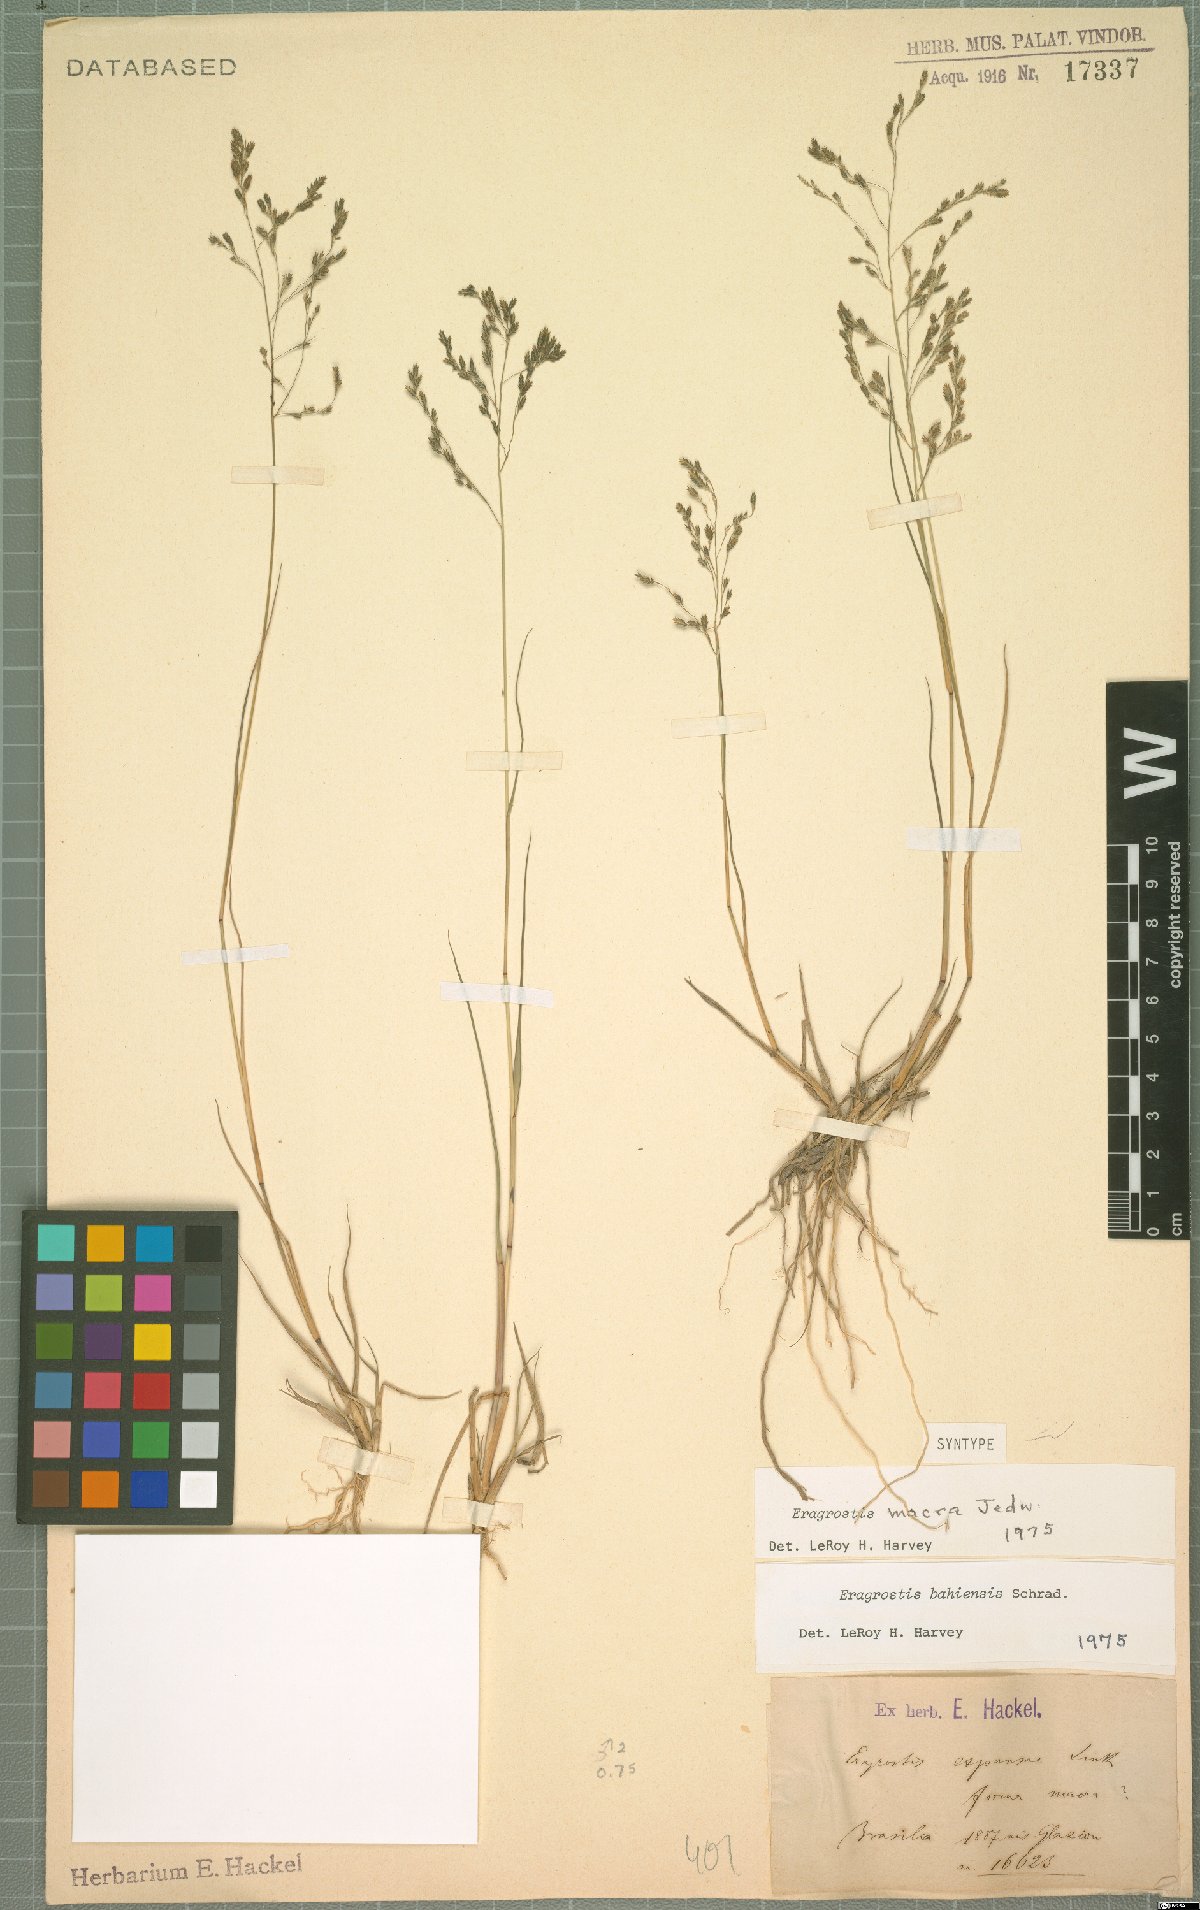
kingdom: Plantae
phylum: Tracheophyta
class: Liliopsida
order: Poales
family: Poaceae
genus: Eragrostis
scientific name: Eragrostis bahiensis
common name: Bahia lovegrass
